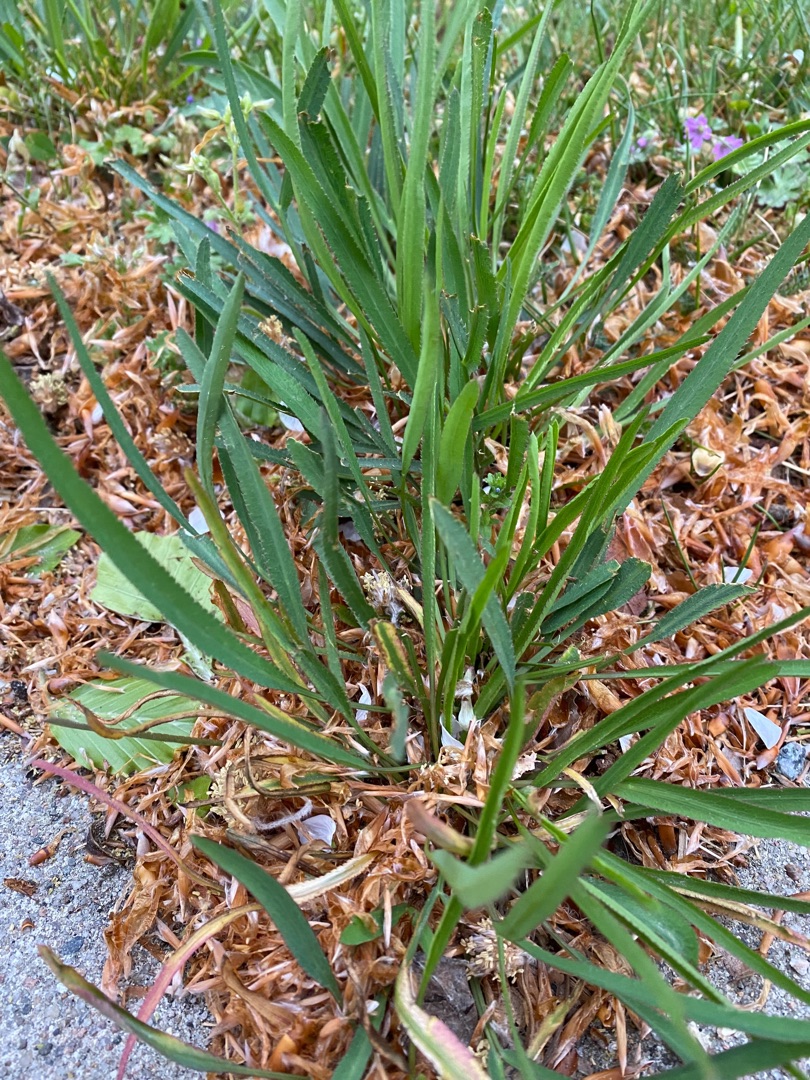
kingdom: Plantae
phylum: Tracheophyta
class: Magnoliopsida
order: Apiales
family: Apiaceae
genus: Falcaria
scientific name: Falcaria vulgaris
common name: Seglblad
